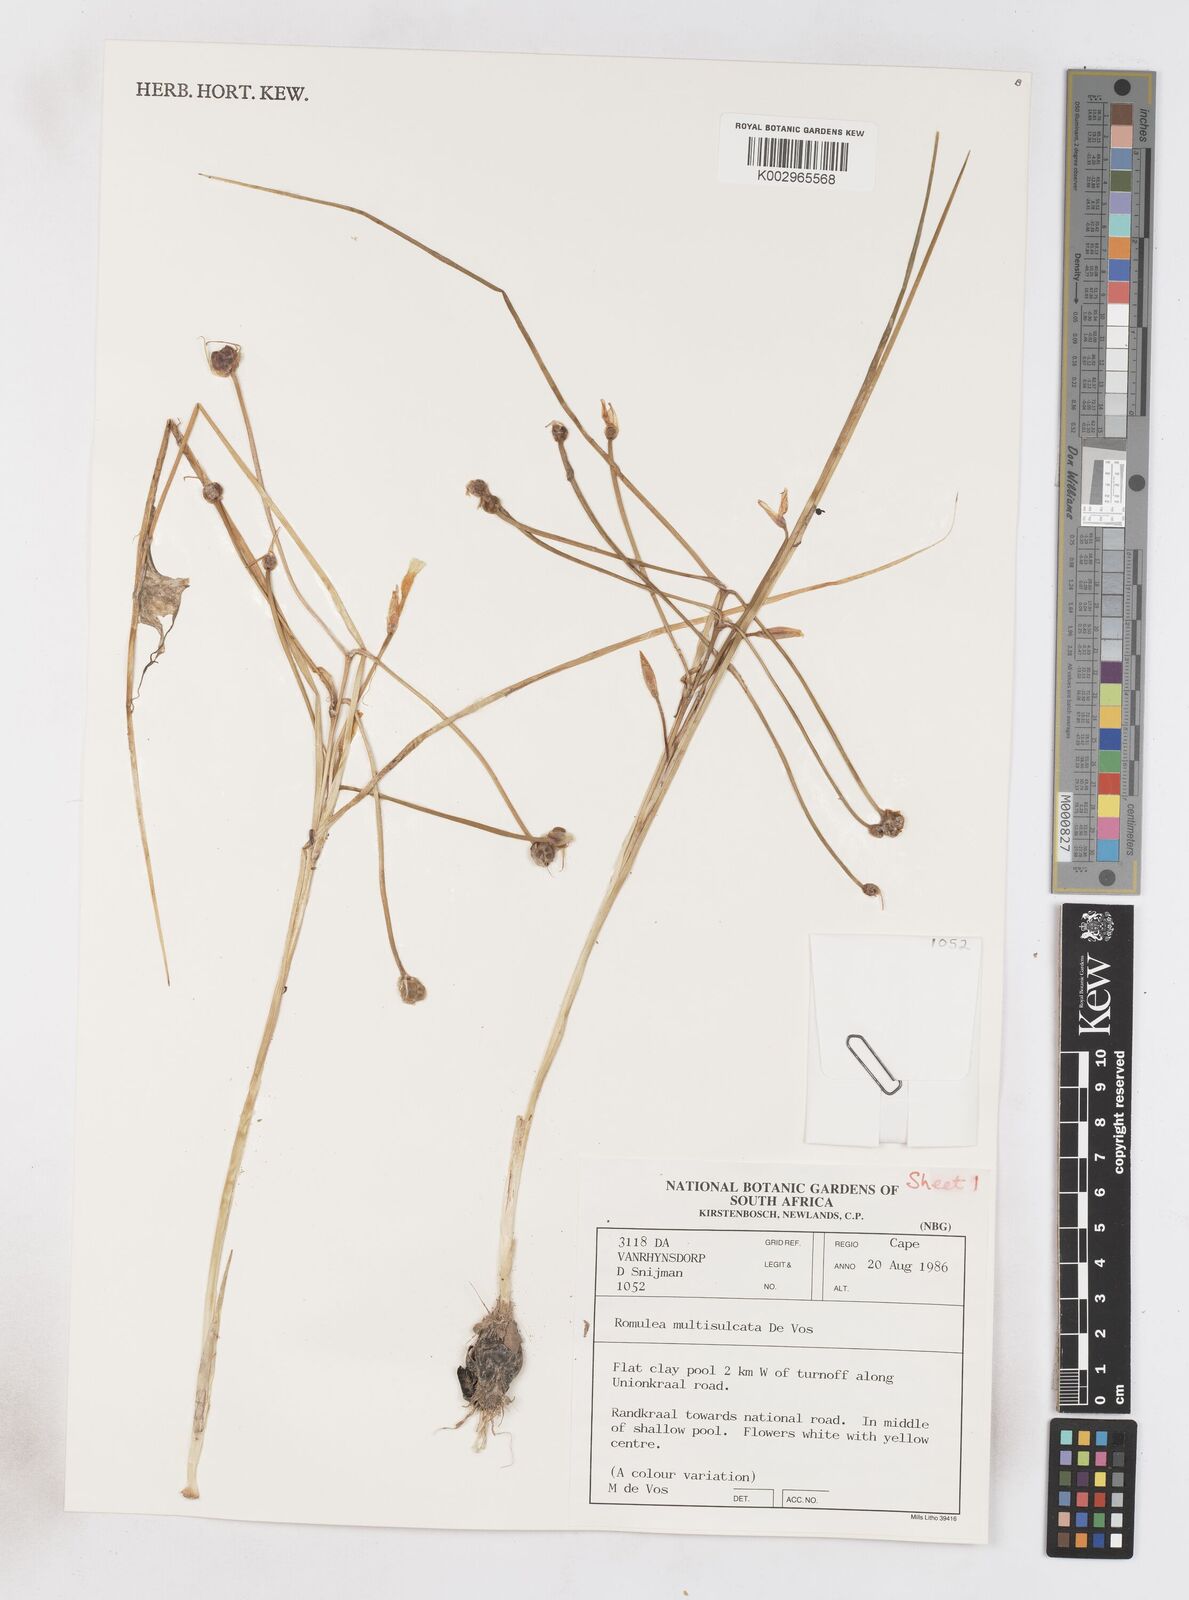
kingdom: Plantae
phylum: Tracheophyta
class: Liliopsida
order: Asparagales
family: Iridaceae
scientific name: Iridaceae
